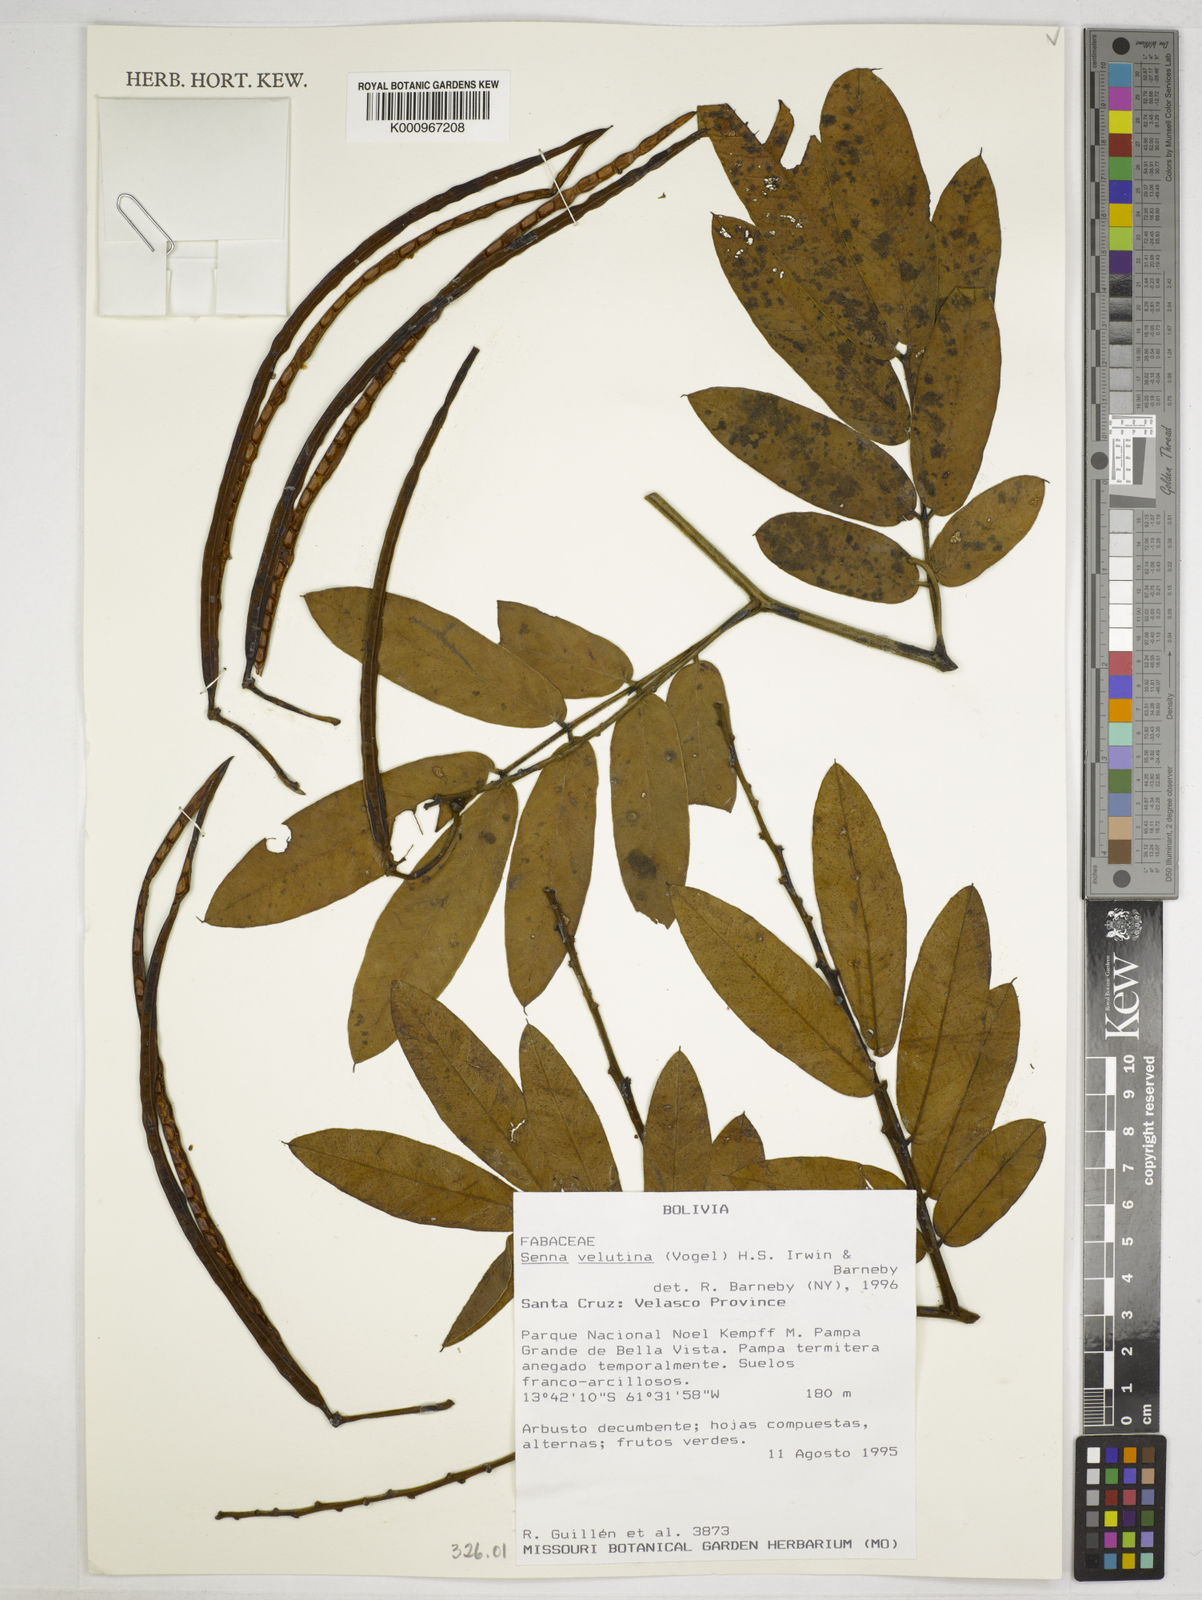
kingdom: Plantae
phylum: Tracheophyta
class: Magnoliopsida
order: Fabales
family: Fabaceae
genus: Senna
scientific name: Senna velutina
